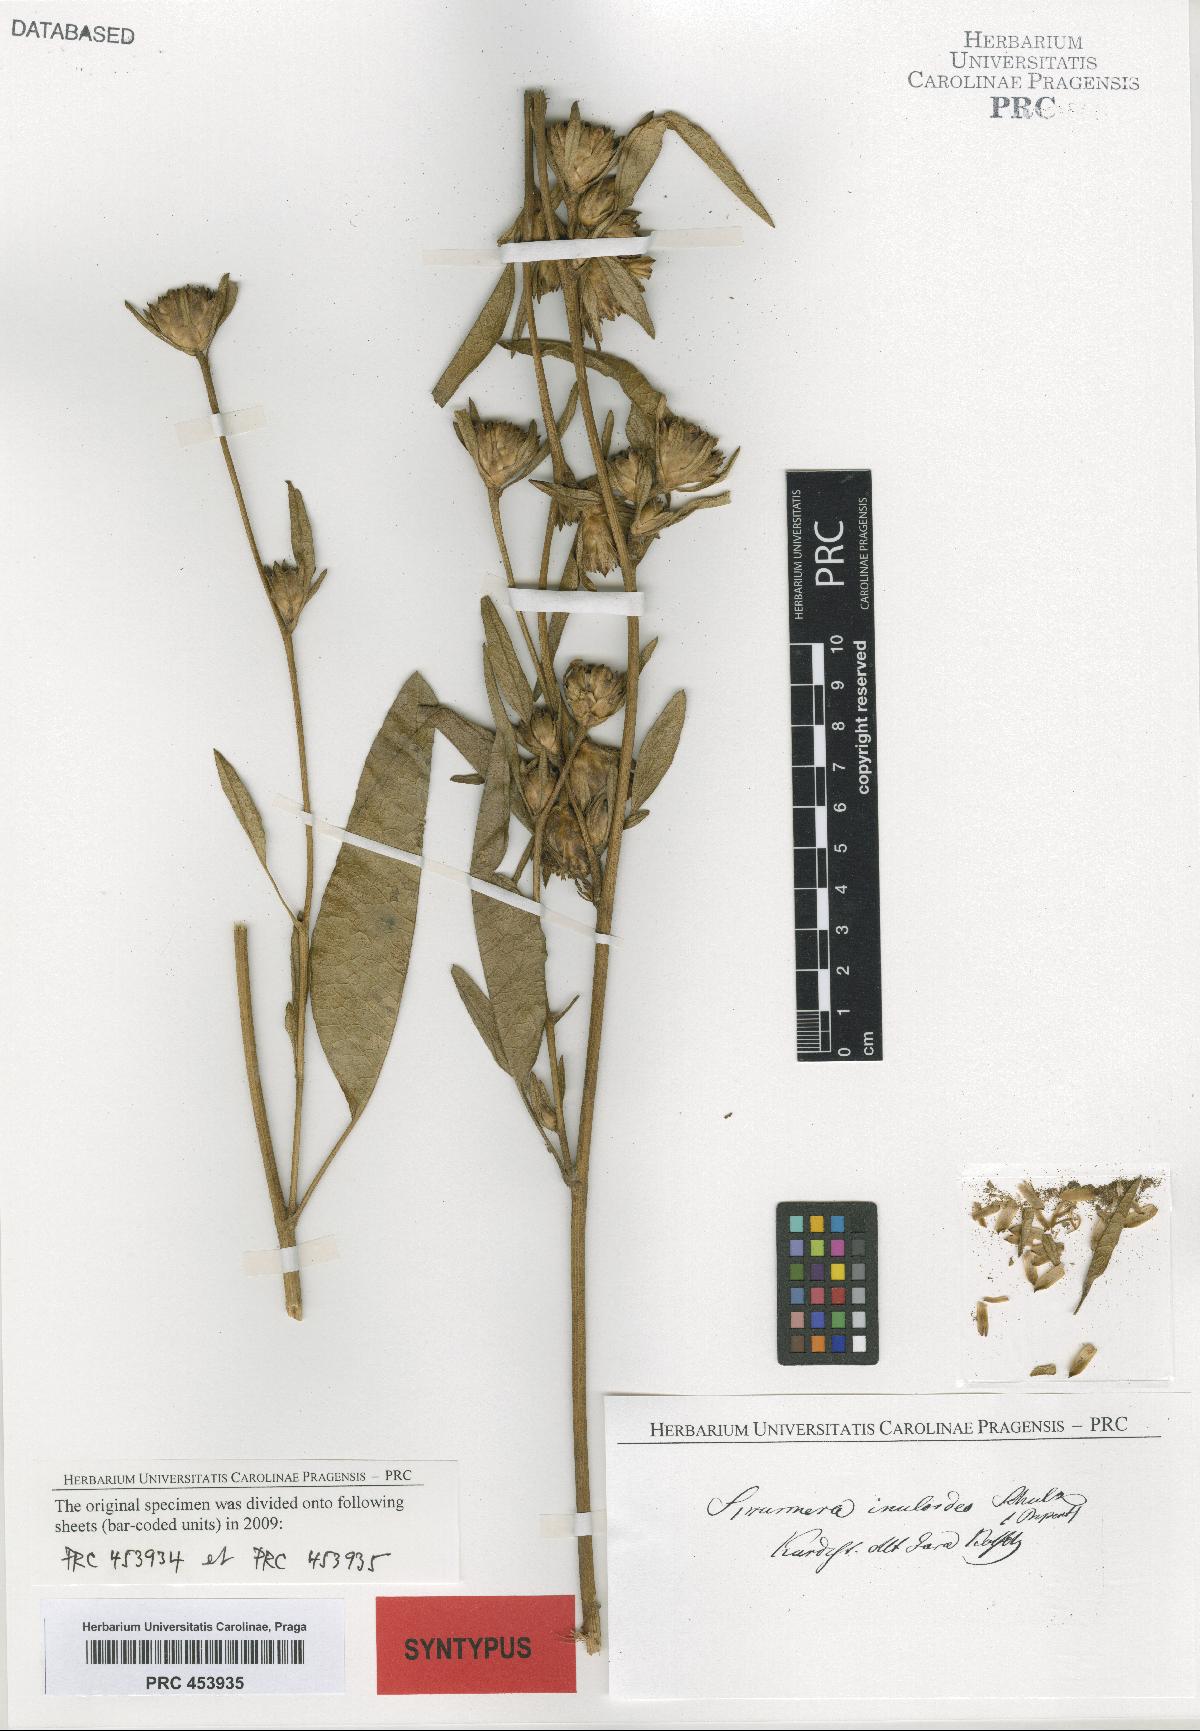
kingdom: Plantae
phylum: Tracheophyta
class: Magnoliopsida
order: Asterales
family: Asteraceae
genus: Inula
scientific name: Inula inuloides
